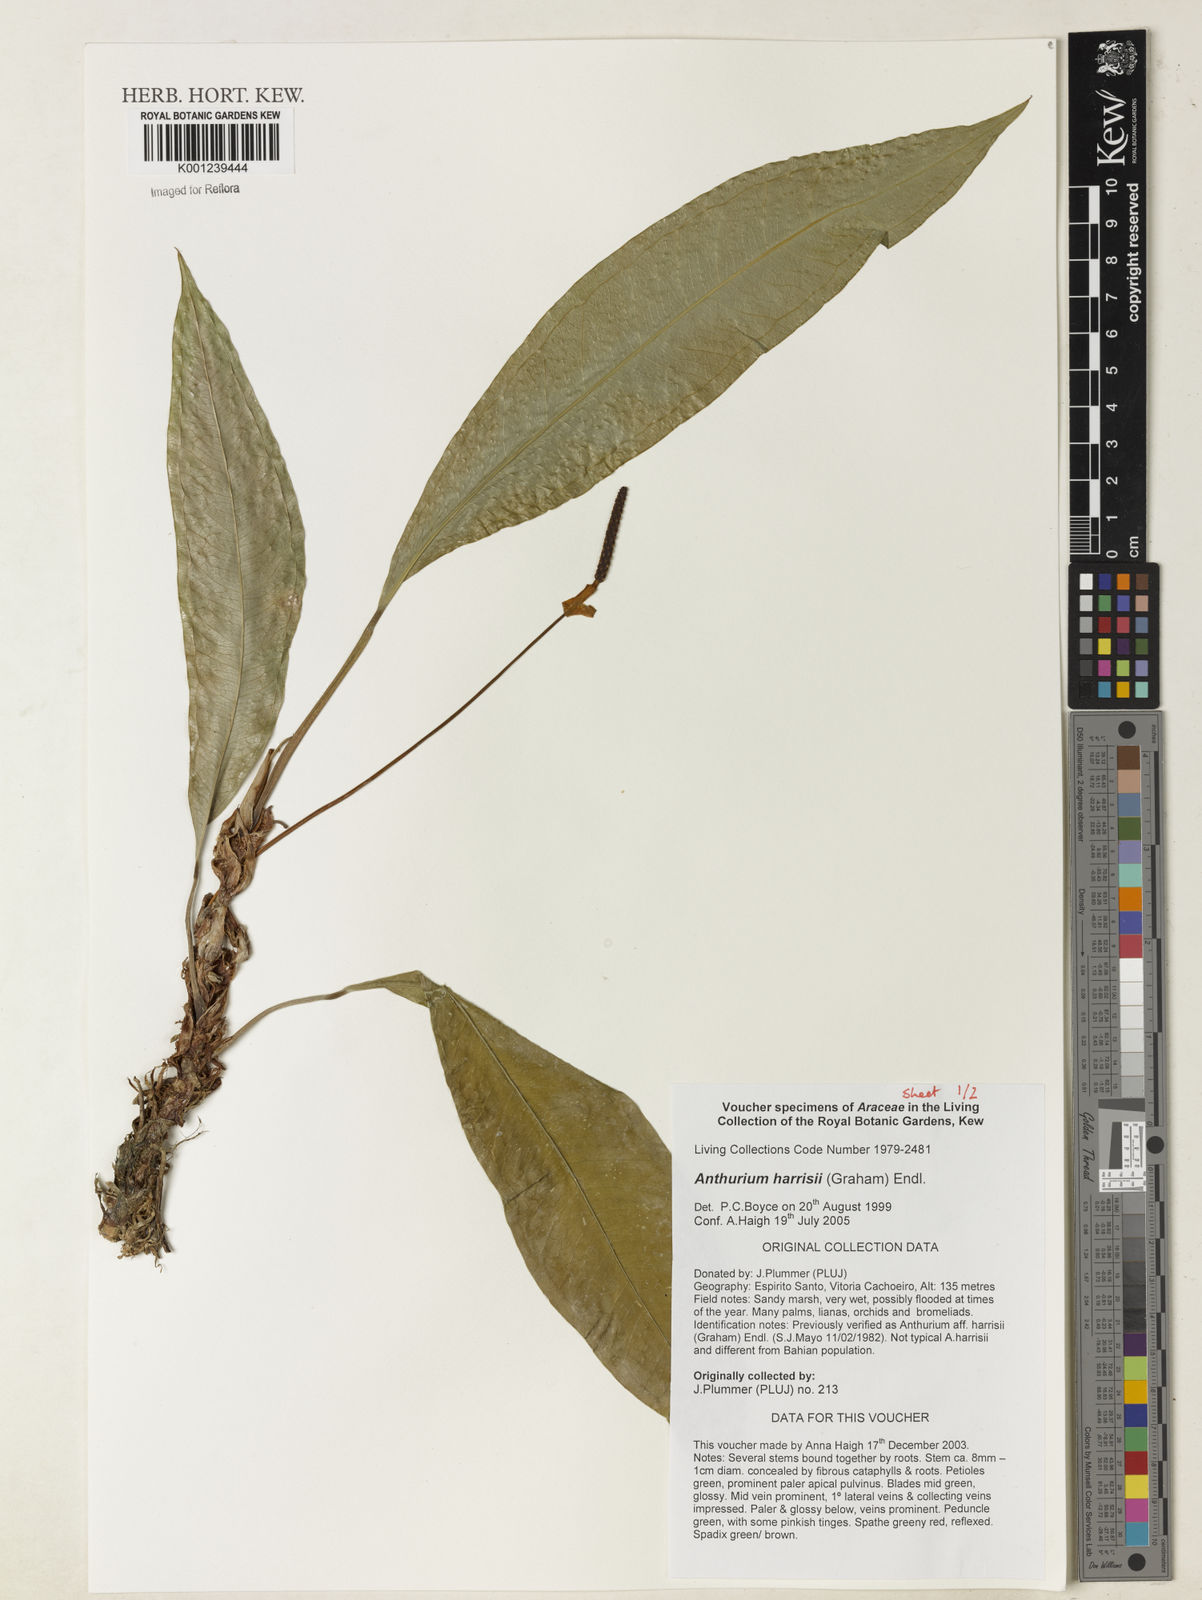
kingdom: Plantae
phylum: Tracheophyta
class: Liliopsida
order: Alismatales
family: Araceae
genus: Anthurium
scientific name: Anthurium harrisii
